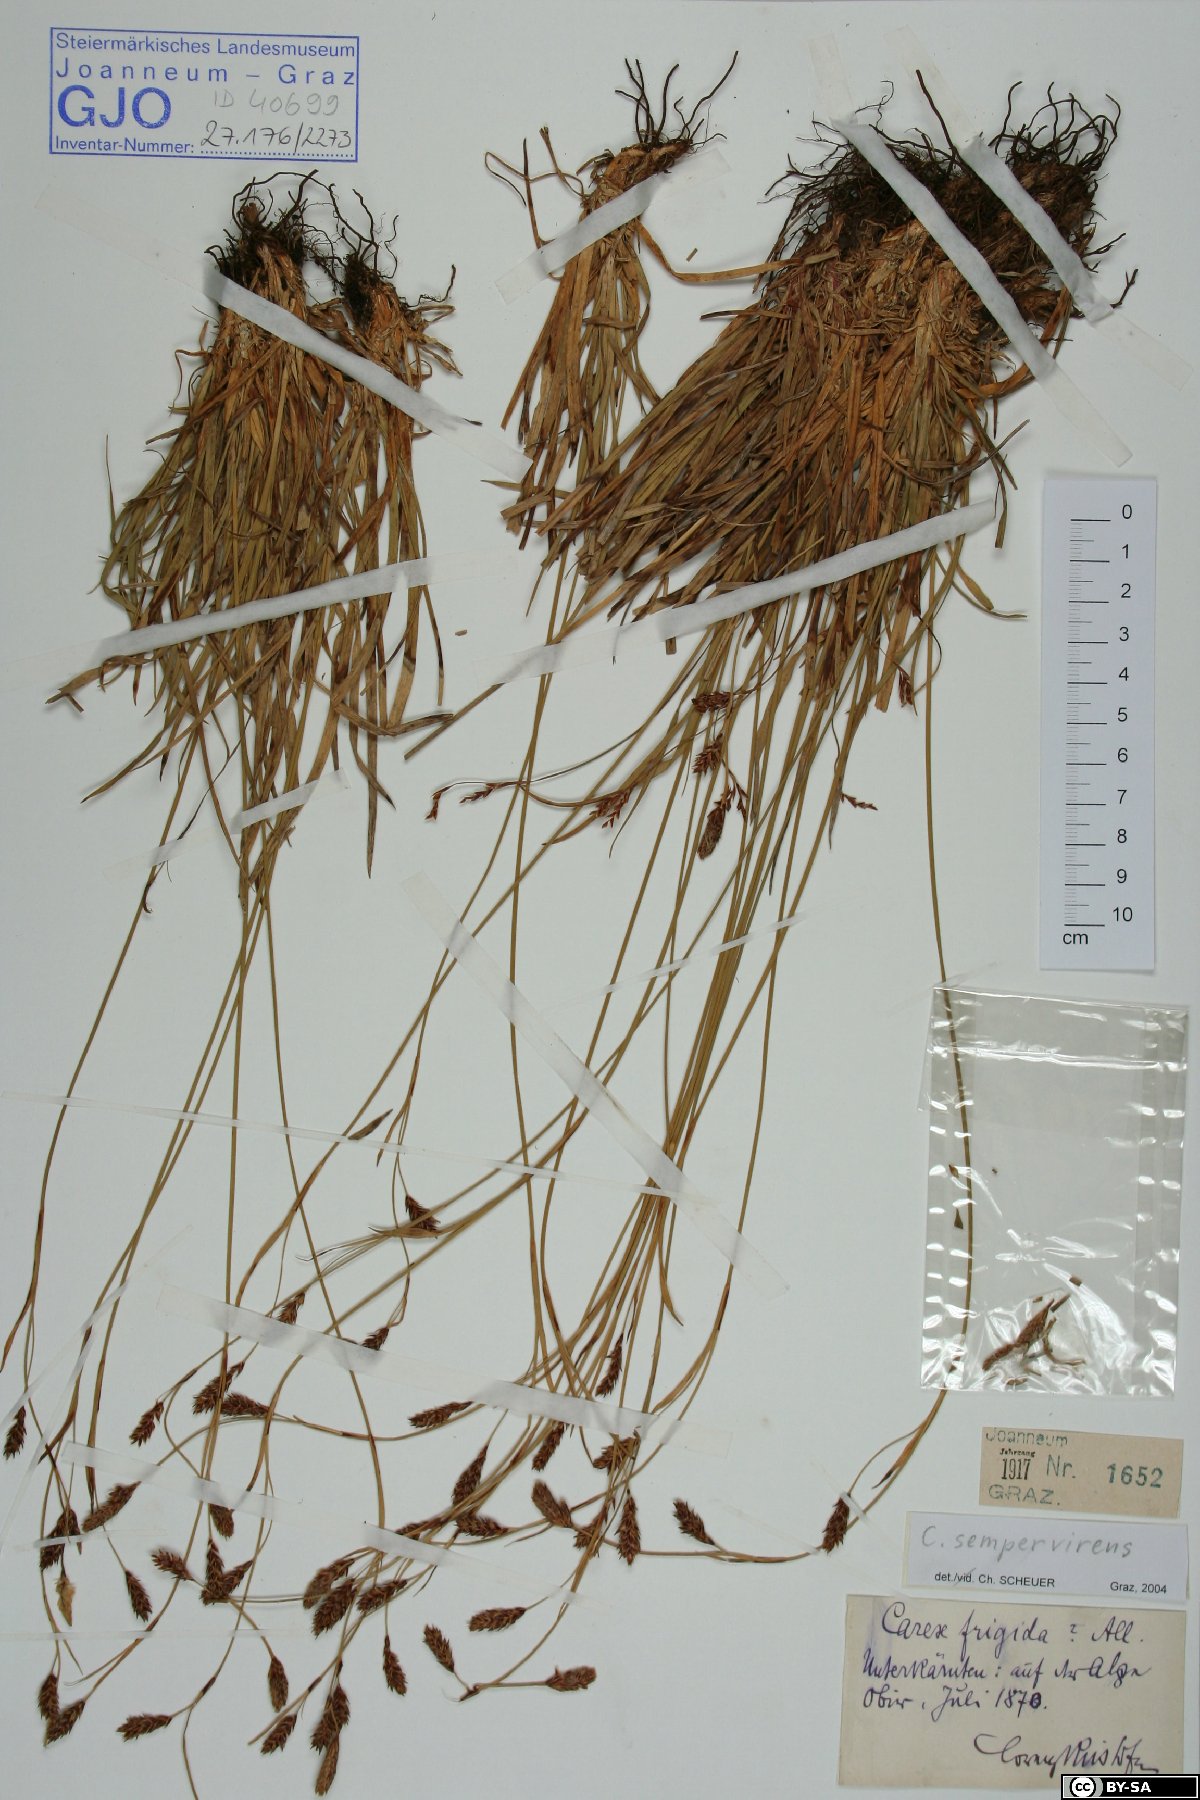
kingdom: Plantae
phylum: Tracheophyta
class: Liliopsida
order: Poales
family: Cyperaceae
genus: Carex
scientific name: Carex sempervirens
